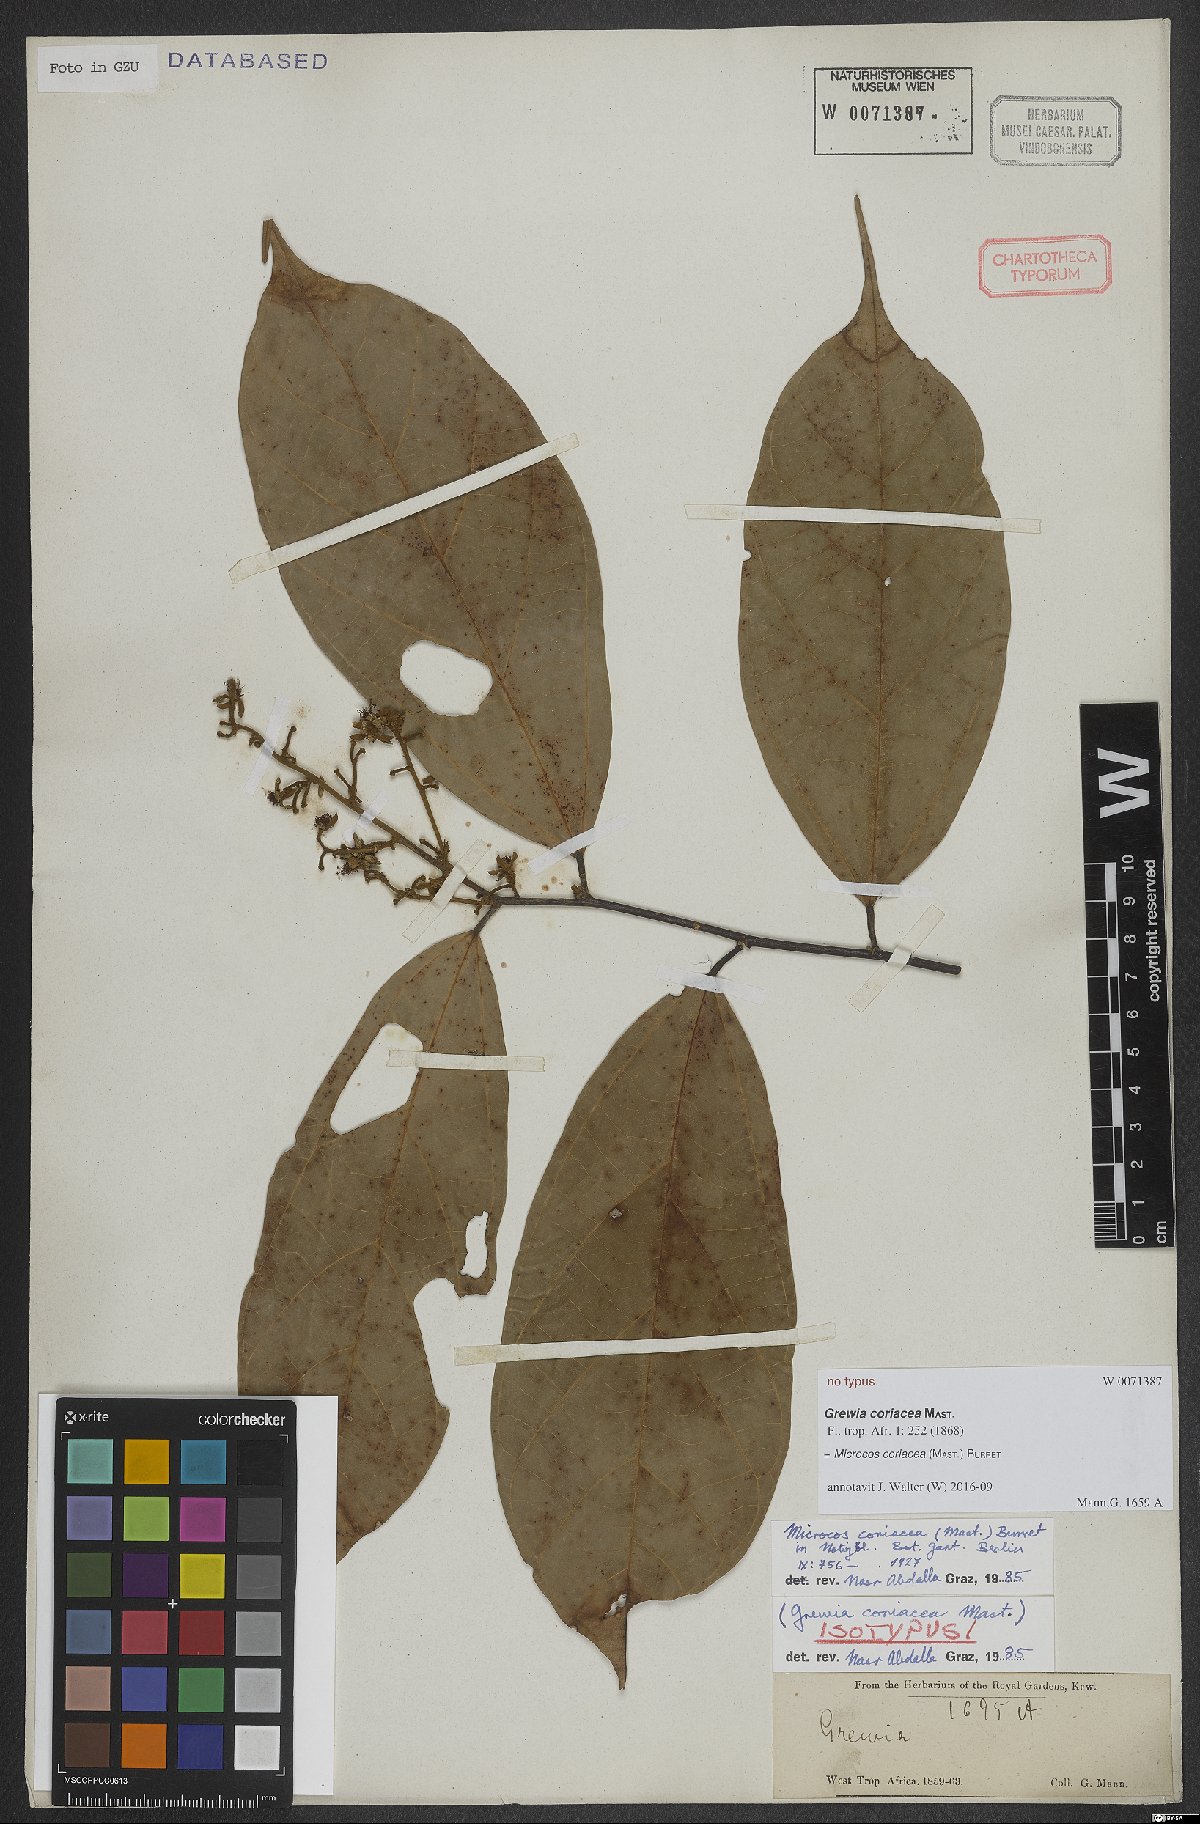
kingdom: Plantae
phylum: Tracheophyta
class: Magnoliopsida
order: Malvales
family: Malvaceae
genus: Microcos
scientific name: Microcos coriacea
